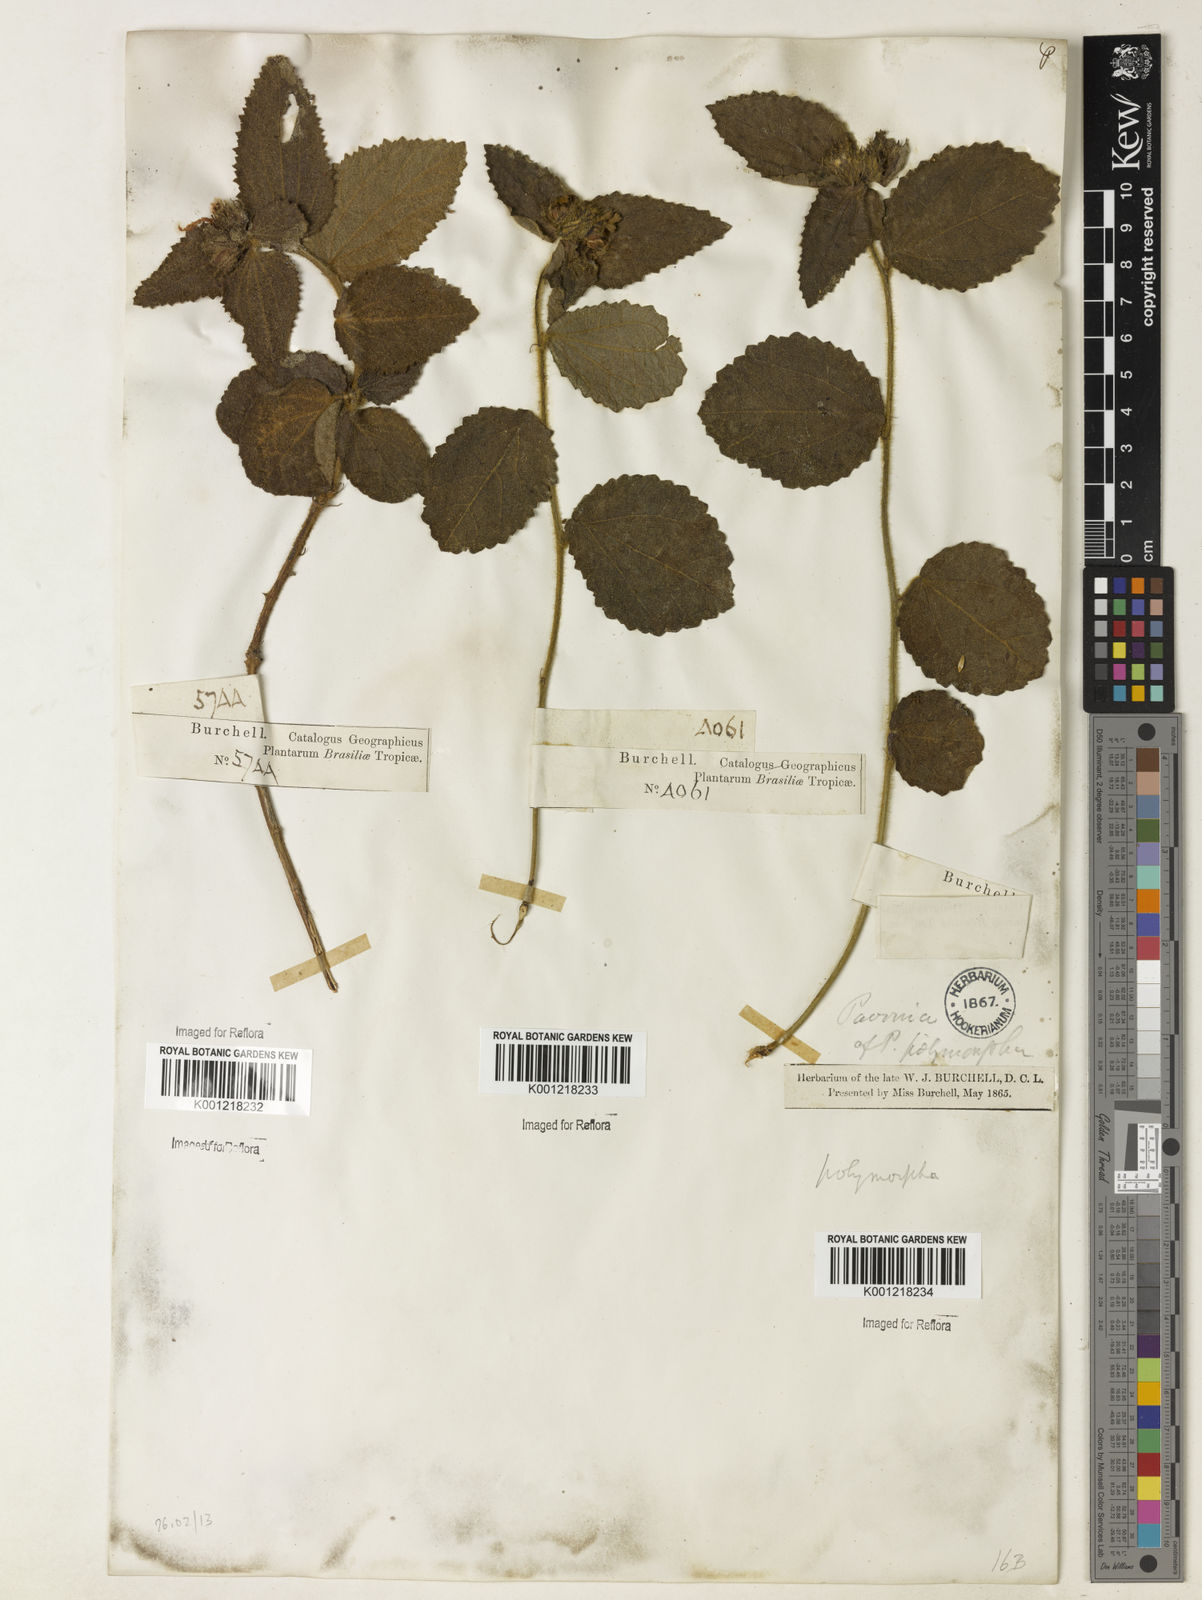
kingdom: Plantae
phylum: Tracheophyta
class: Magnoliopsida
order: Malvales
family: Malvaceae
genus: Peltaea
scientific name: Peltaea
